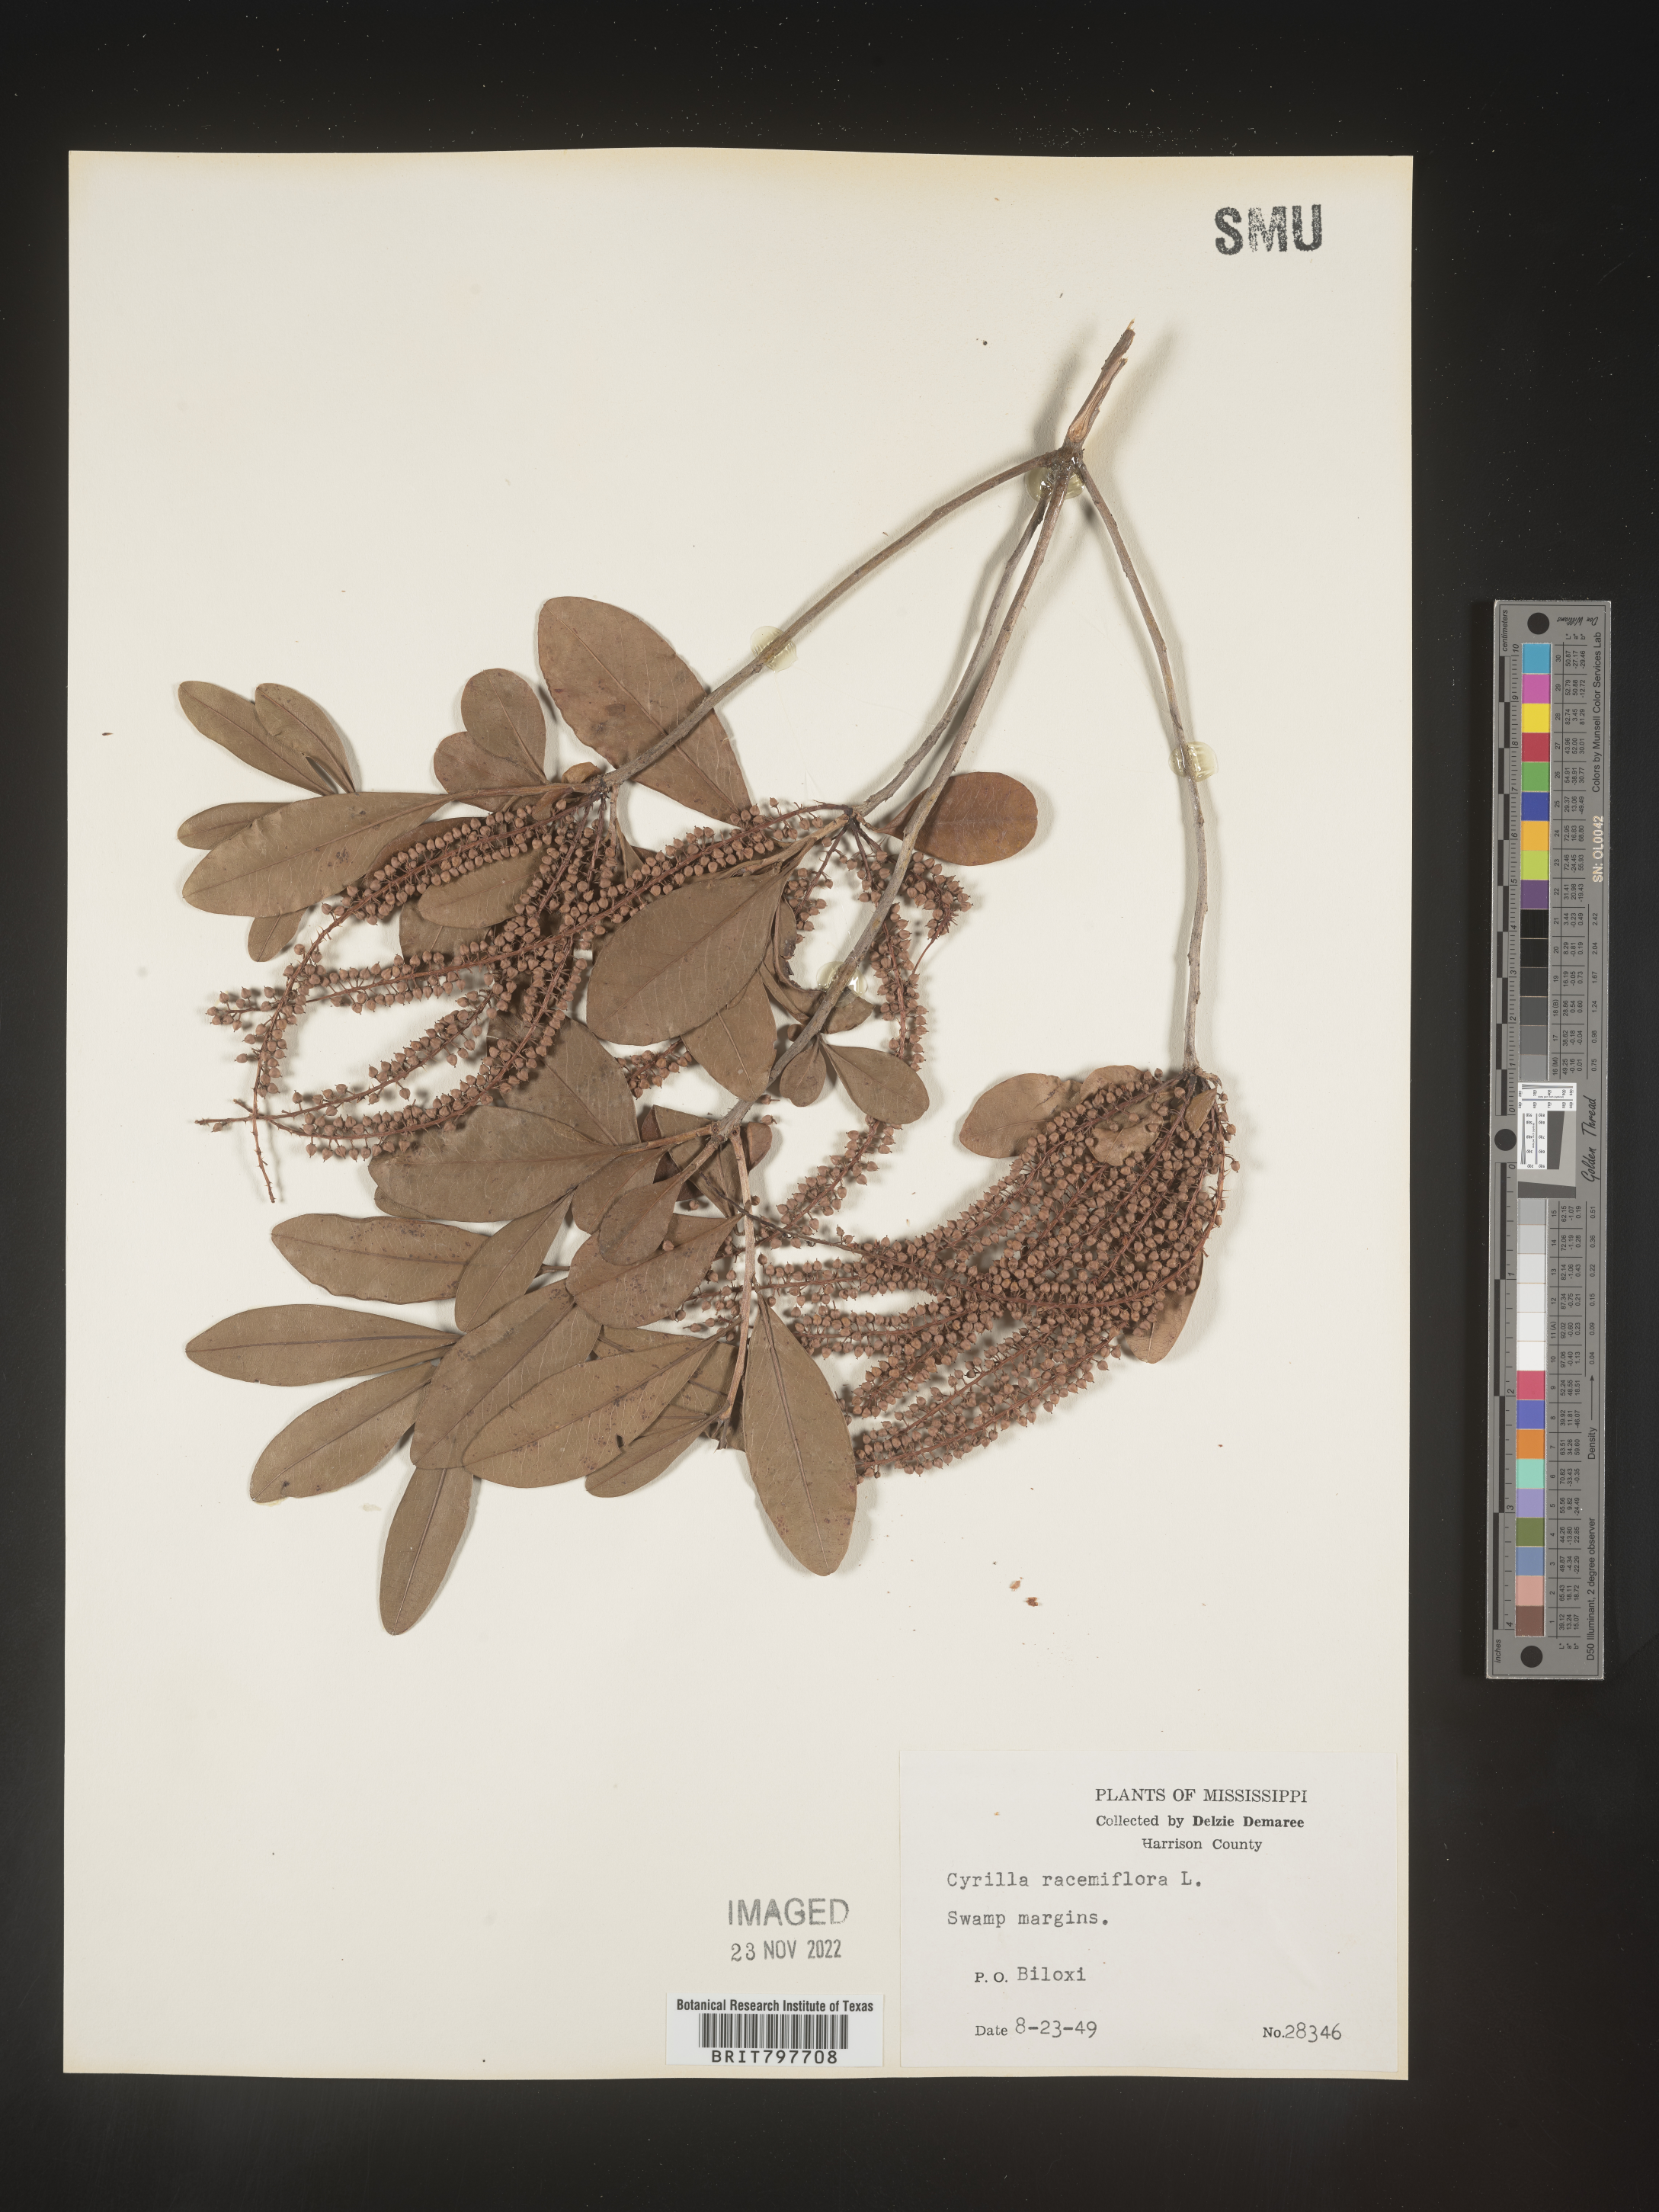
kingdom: Plantae
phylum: Tracheophyta
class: Magnoliopsida
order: Ericales
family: Cyrillaceae
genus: Cyrilla
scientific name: Cyrilla racemiflora
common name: Black titi
